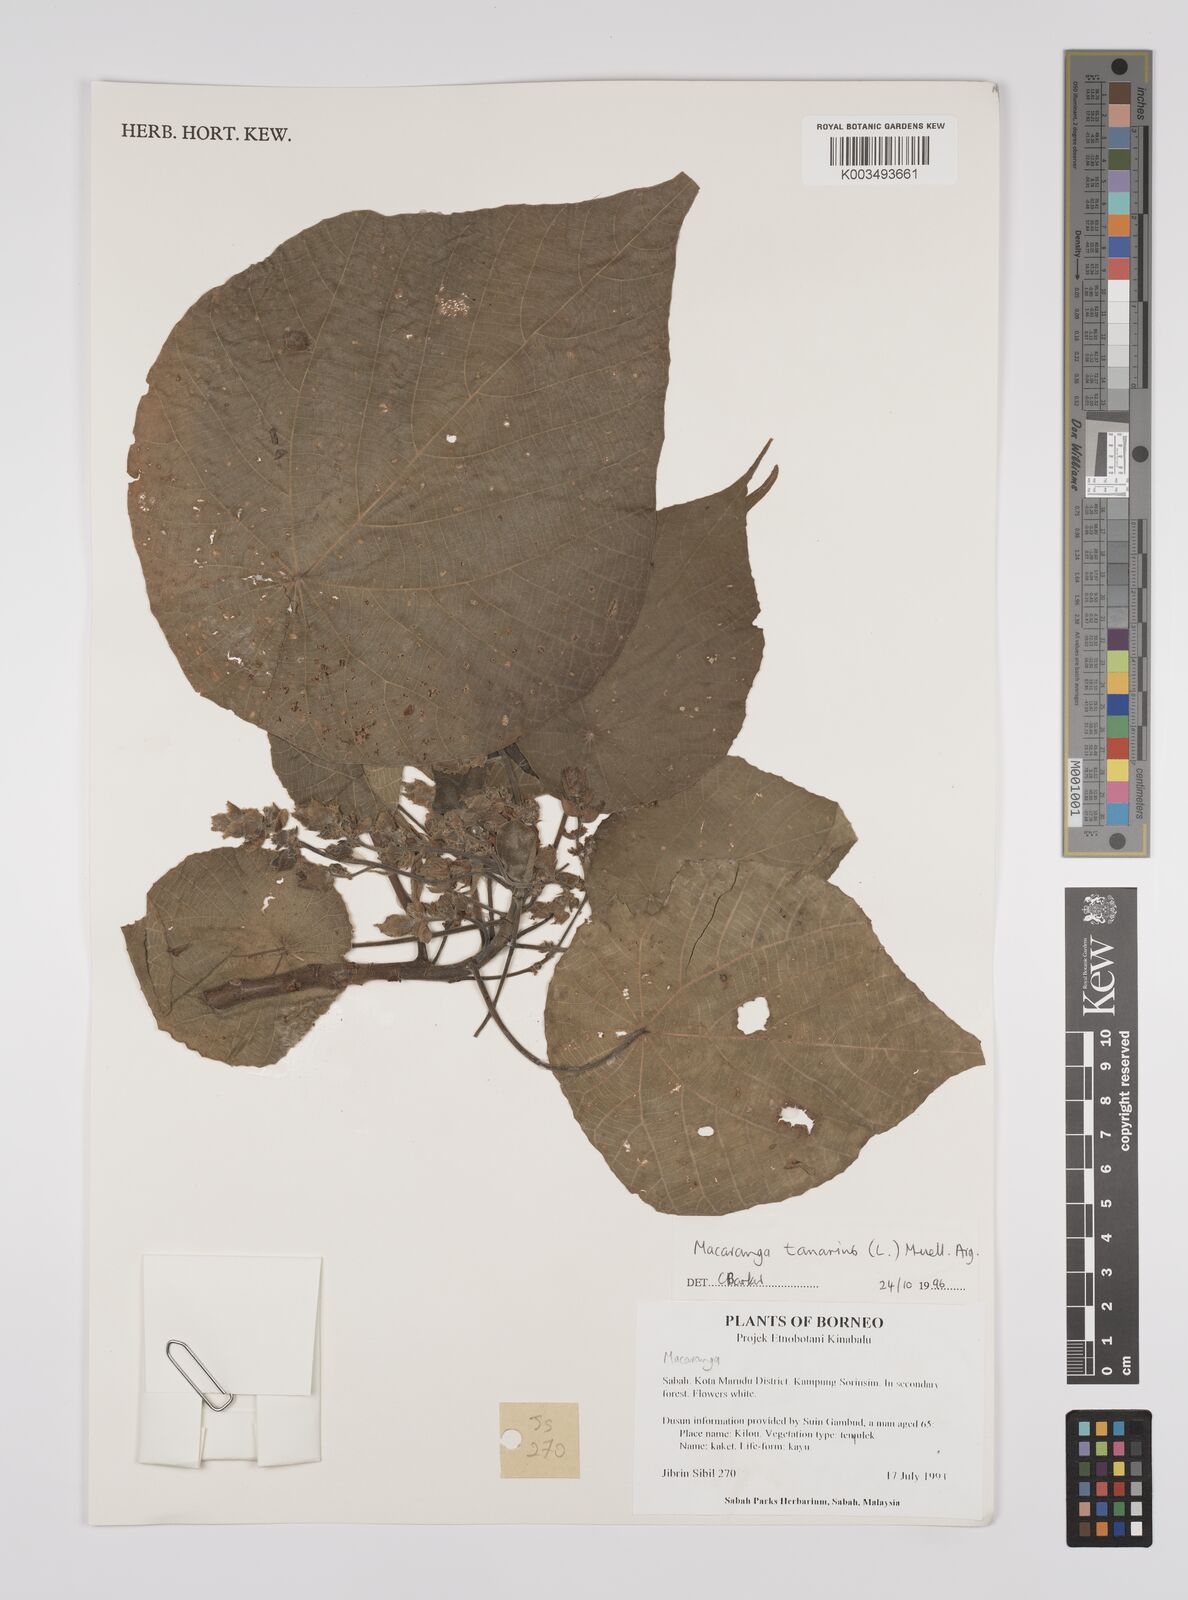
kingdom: Plantae
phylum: Tracheophyta
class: Magnoliopsida
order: Malpighiales
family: Euphorbiaceae
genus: Macaranga
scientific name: Macaranga tanarius
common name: Parasol leaf tree
